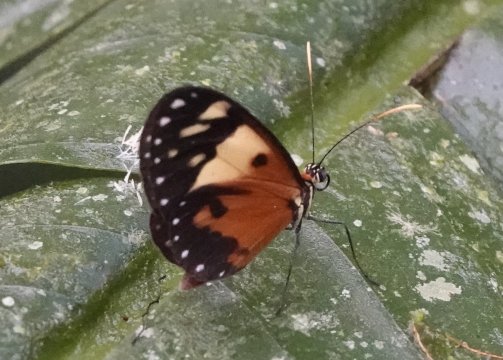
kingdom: Animalia
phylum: Arthropoda
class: Insecta
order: Lepidoptera
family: Nymphalidae
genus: Ithomia
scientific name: Ithomia iphianassa
